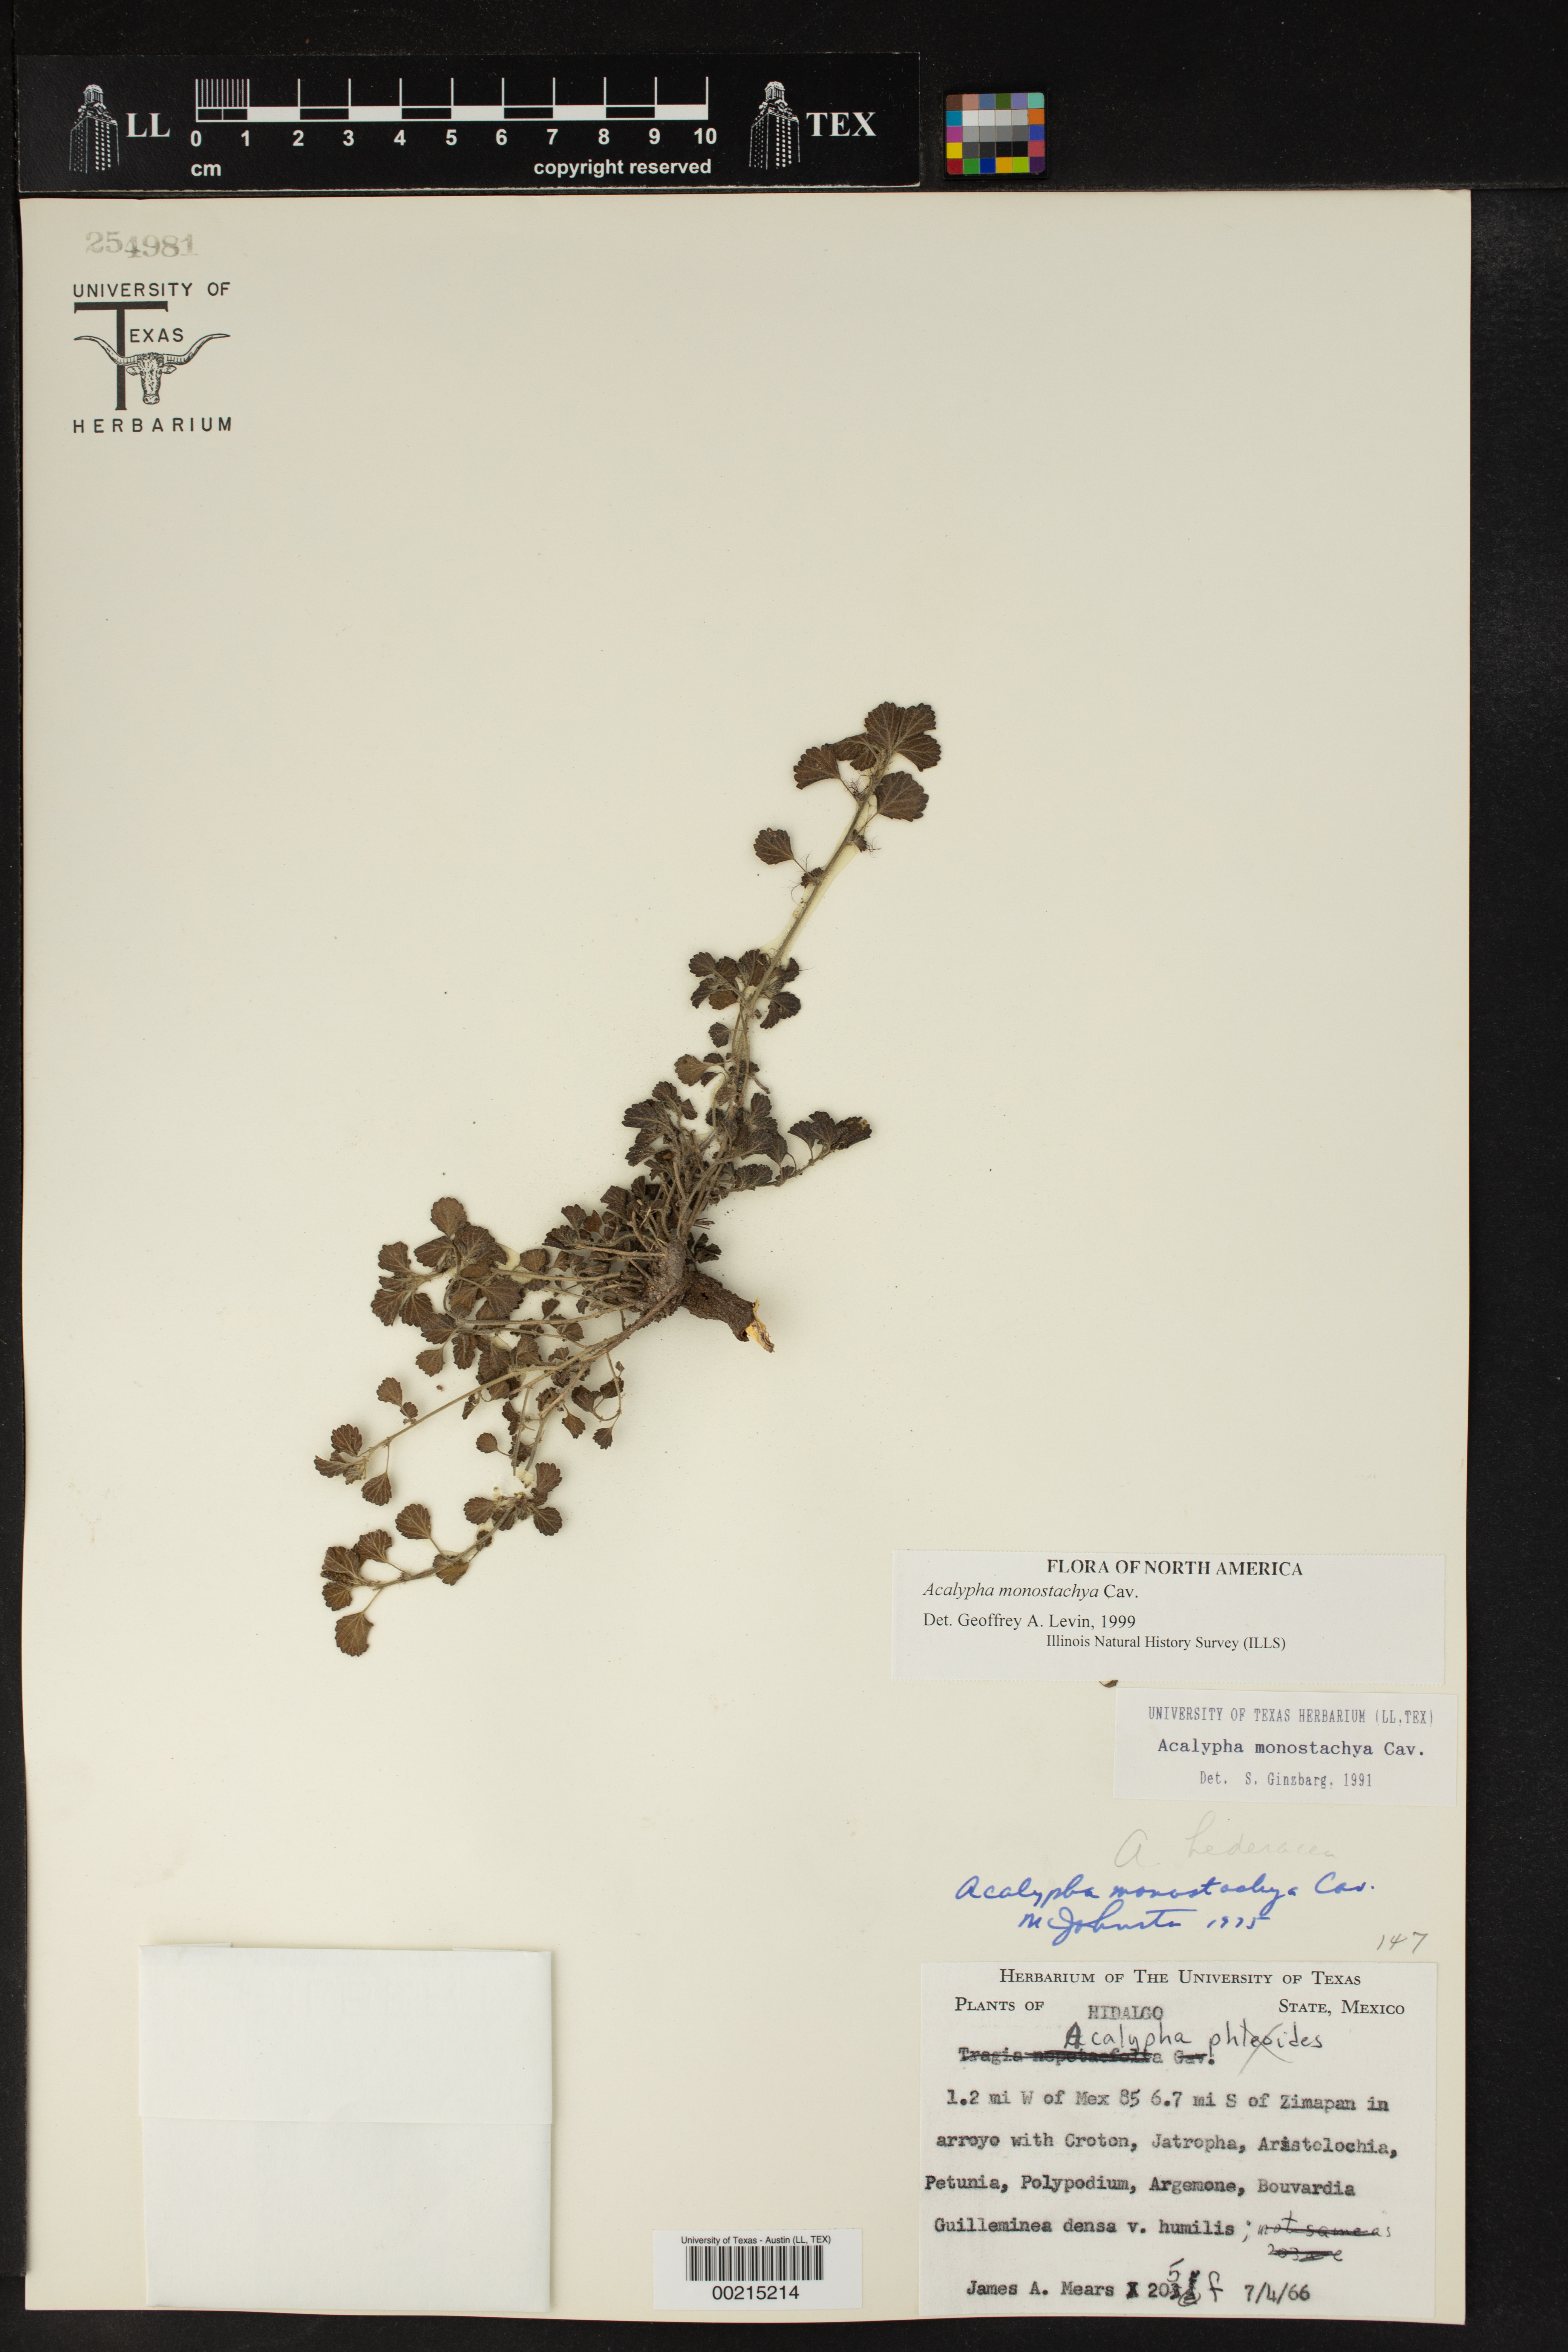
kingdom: Plantae
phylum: Tracheophyta
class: Magnoliopsida
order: Malpighiales
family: Euphorbiaceae
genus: Acalypha
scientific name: Acalypha monostachya
